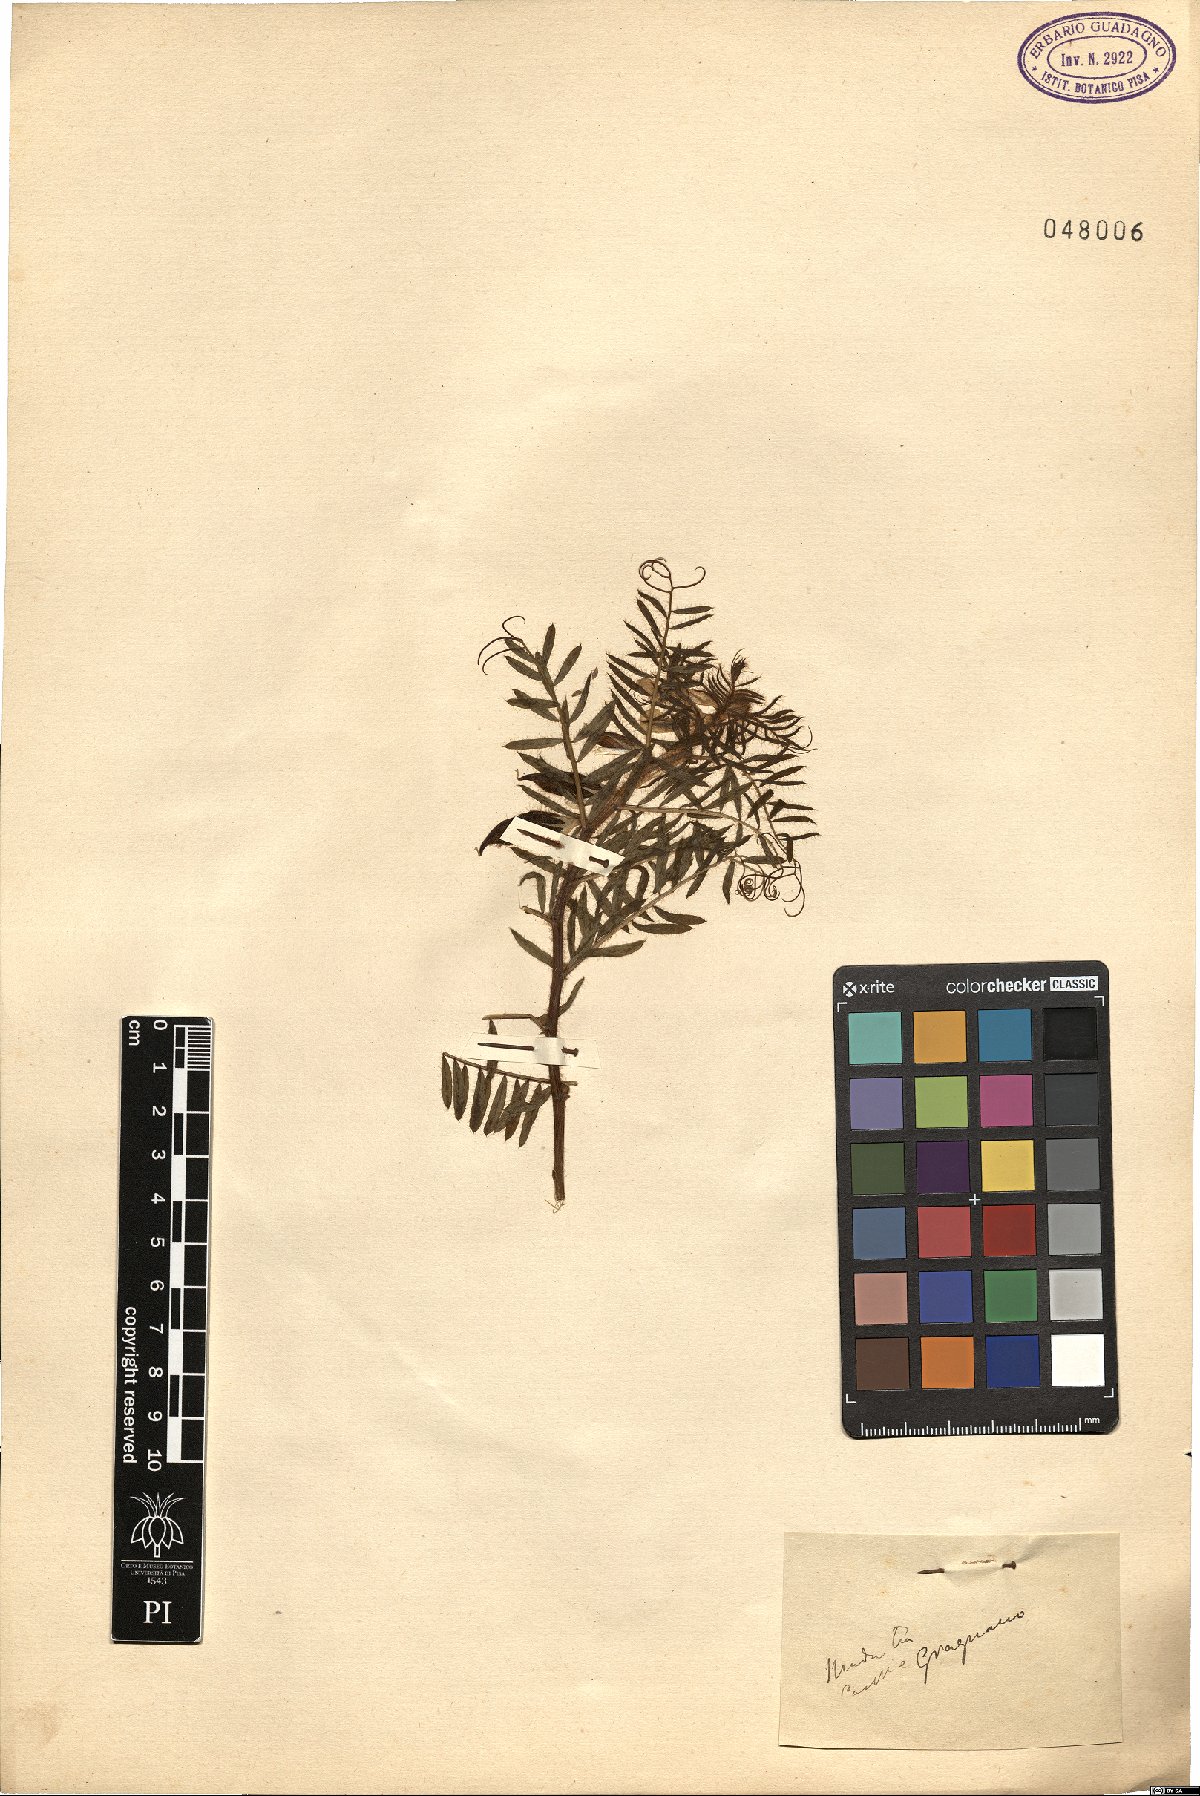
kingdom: Plantae
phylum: Tracheophyta
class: Magnoliopsida
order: Fabales
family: Fabaceae
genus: Vicia
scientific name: Vicia
